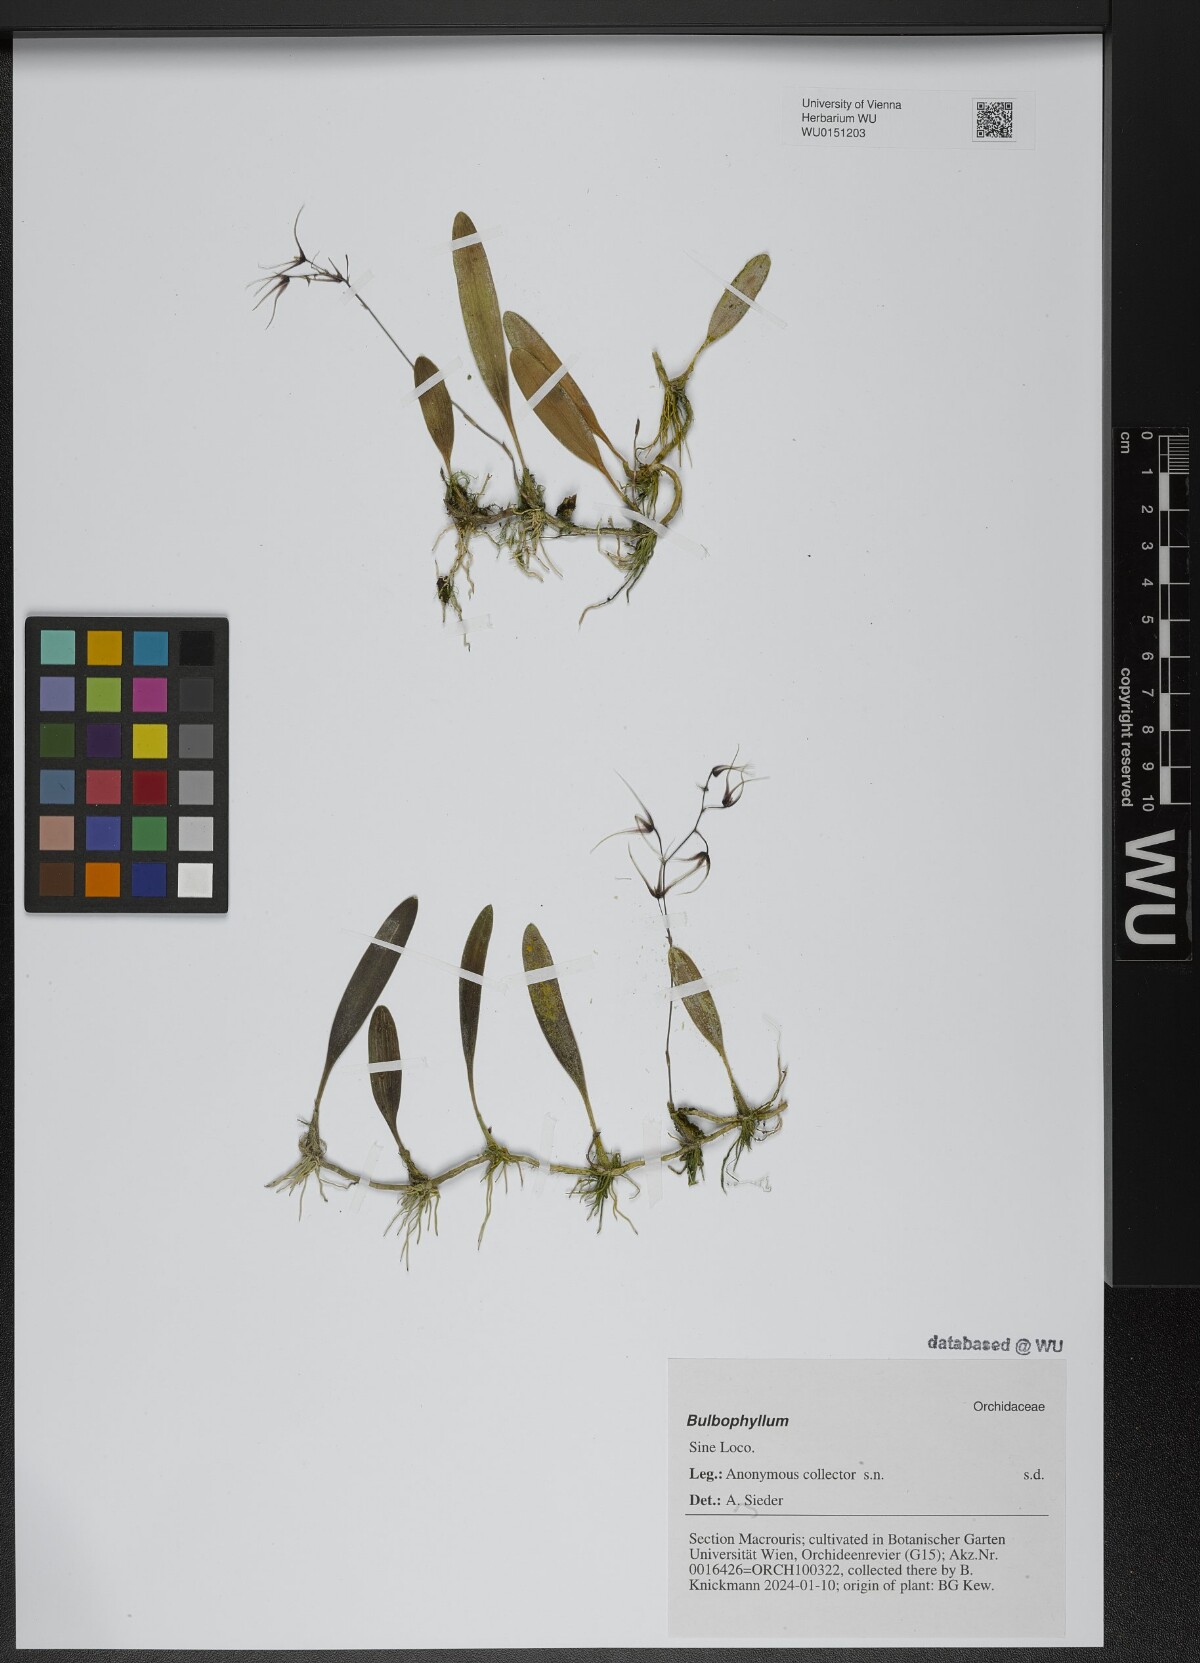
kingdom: Plantae
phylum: Tracheophyta
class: Liliopsida
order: Asparagales
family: Orchidaceae
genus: Bulbophyllum
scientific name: Bulbophyllum
